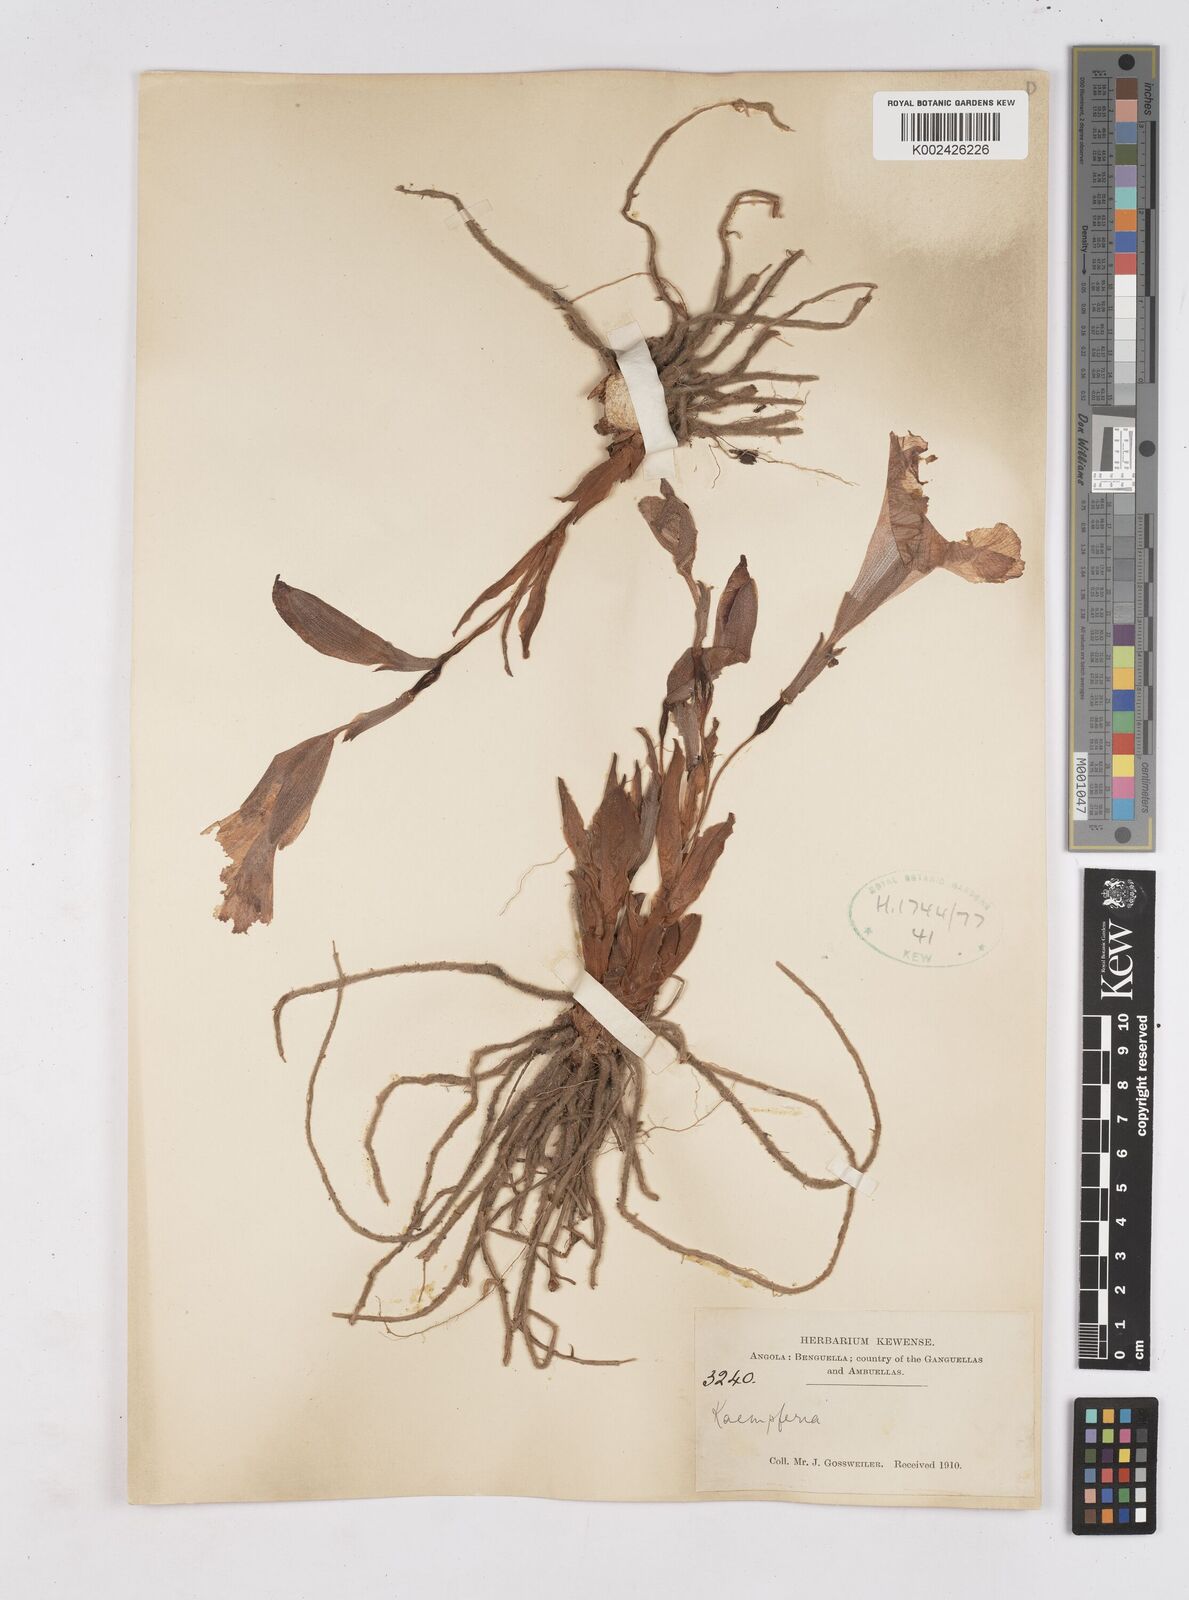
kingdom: Plantae
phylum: Tracheophyta
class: Liliopsida
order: Zingiberales
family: Zingiberaceae
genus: Siphonochilus
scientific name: Siphonochilus
